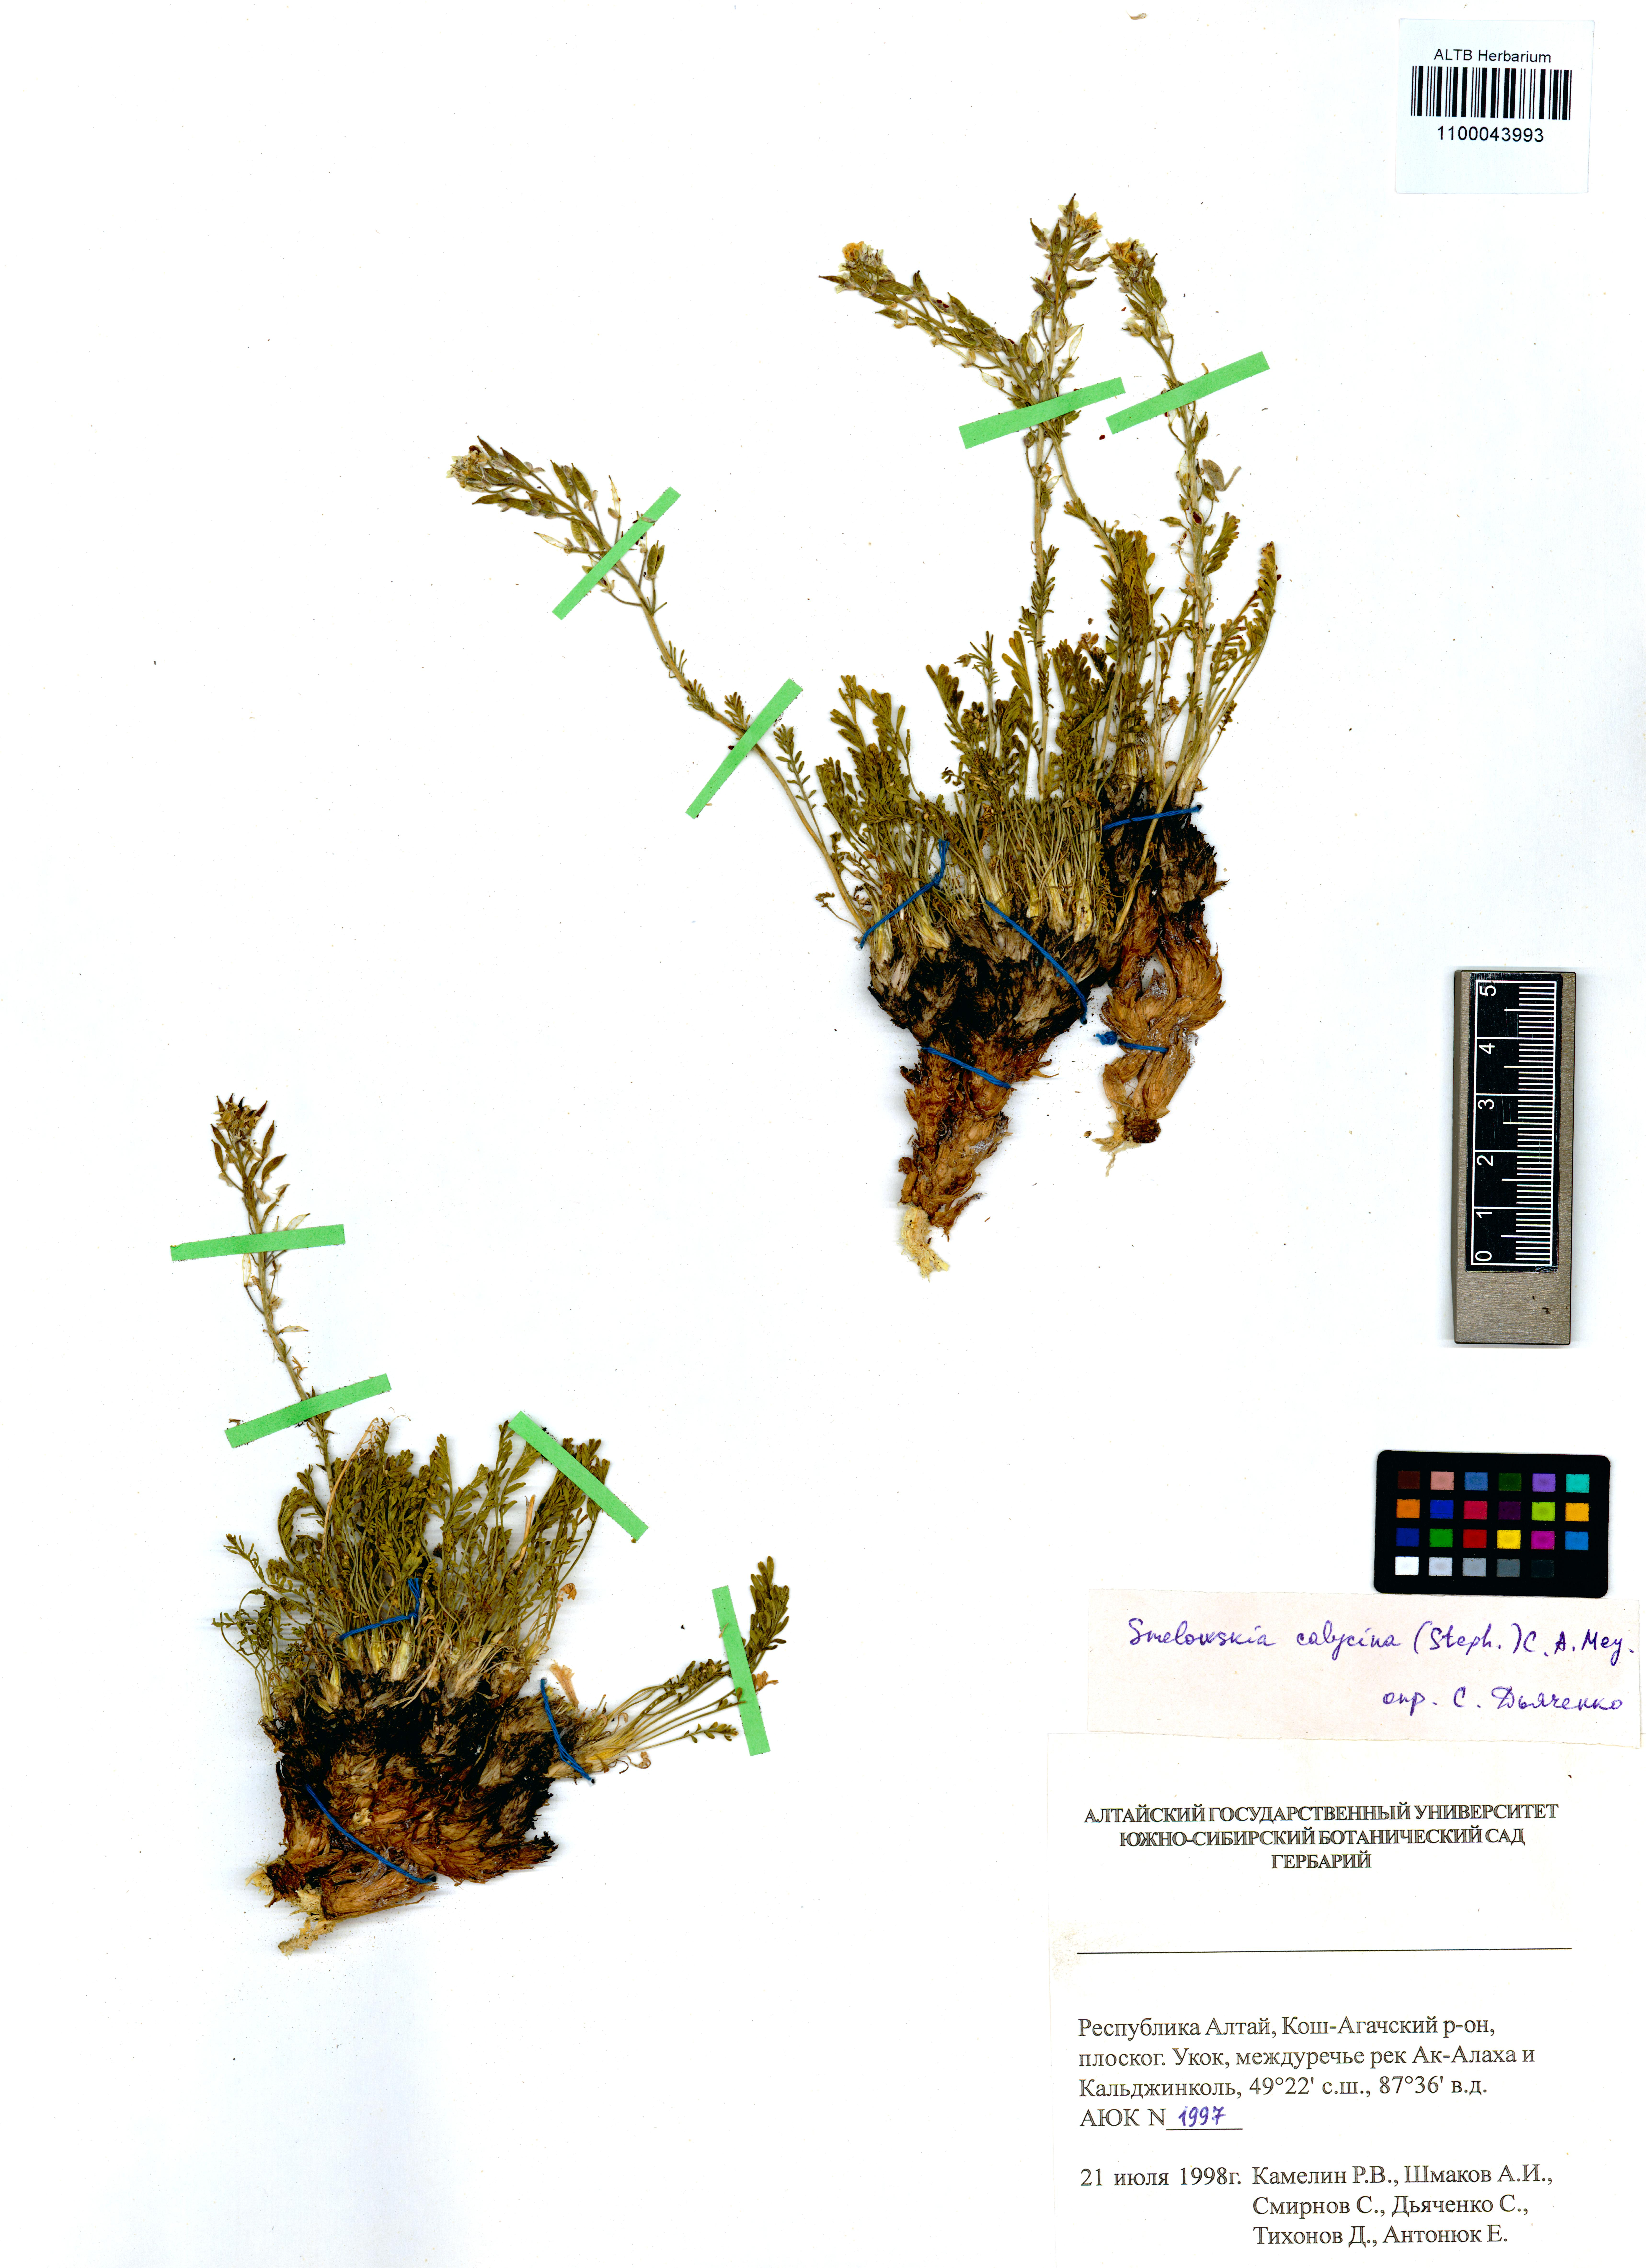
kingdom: Plantae
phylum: Tracheophyta
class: Magnoliopsida
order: Brassicales
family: Brassicaceae
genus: Smelowskia
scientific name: Smelowskia calycina
